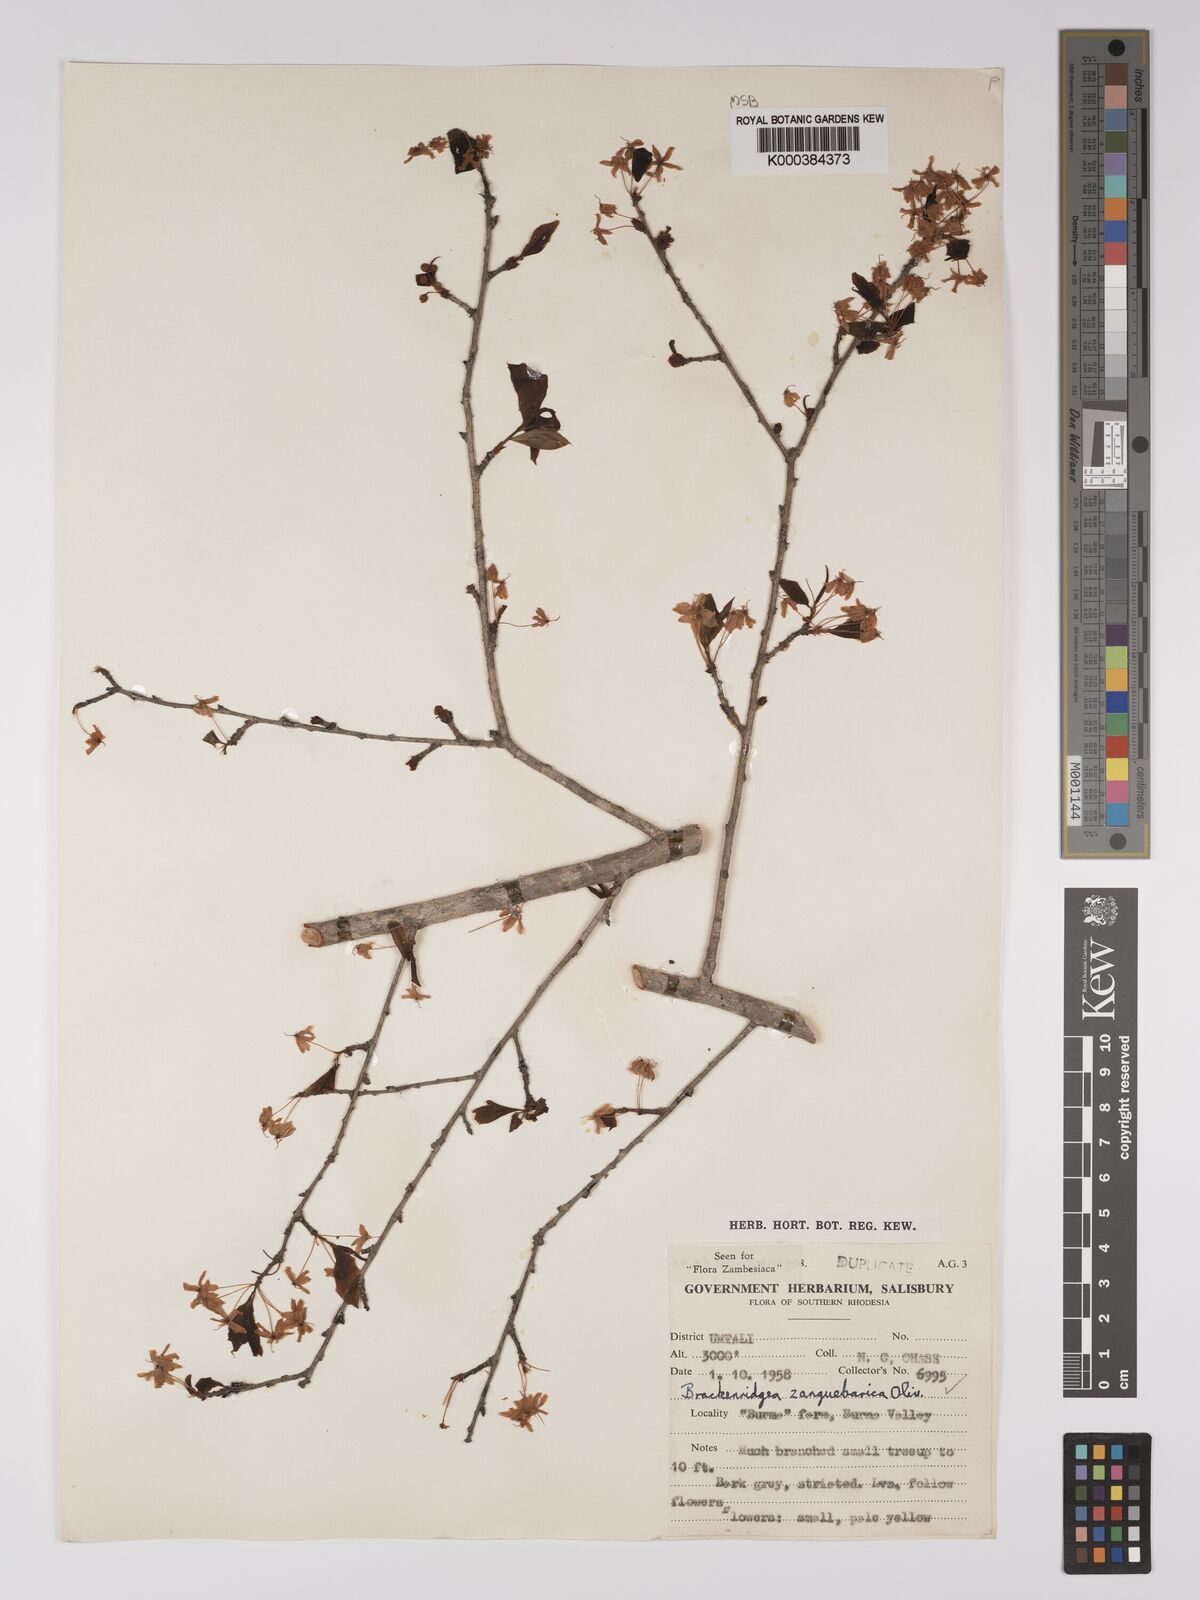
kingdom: Plantae
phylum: Tracheophyta
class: Magnoliopsida
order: Malpighiales
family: Ochnaceae
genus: Brackenridgea
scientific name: Brackenridgea zanguebarica
